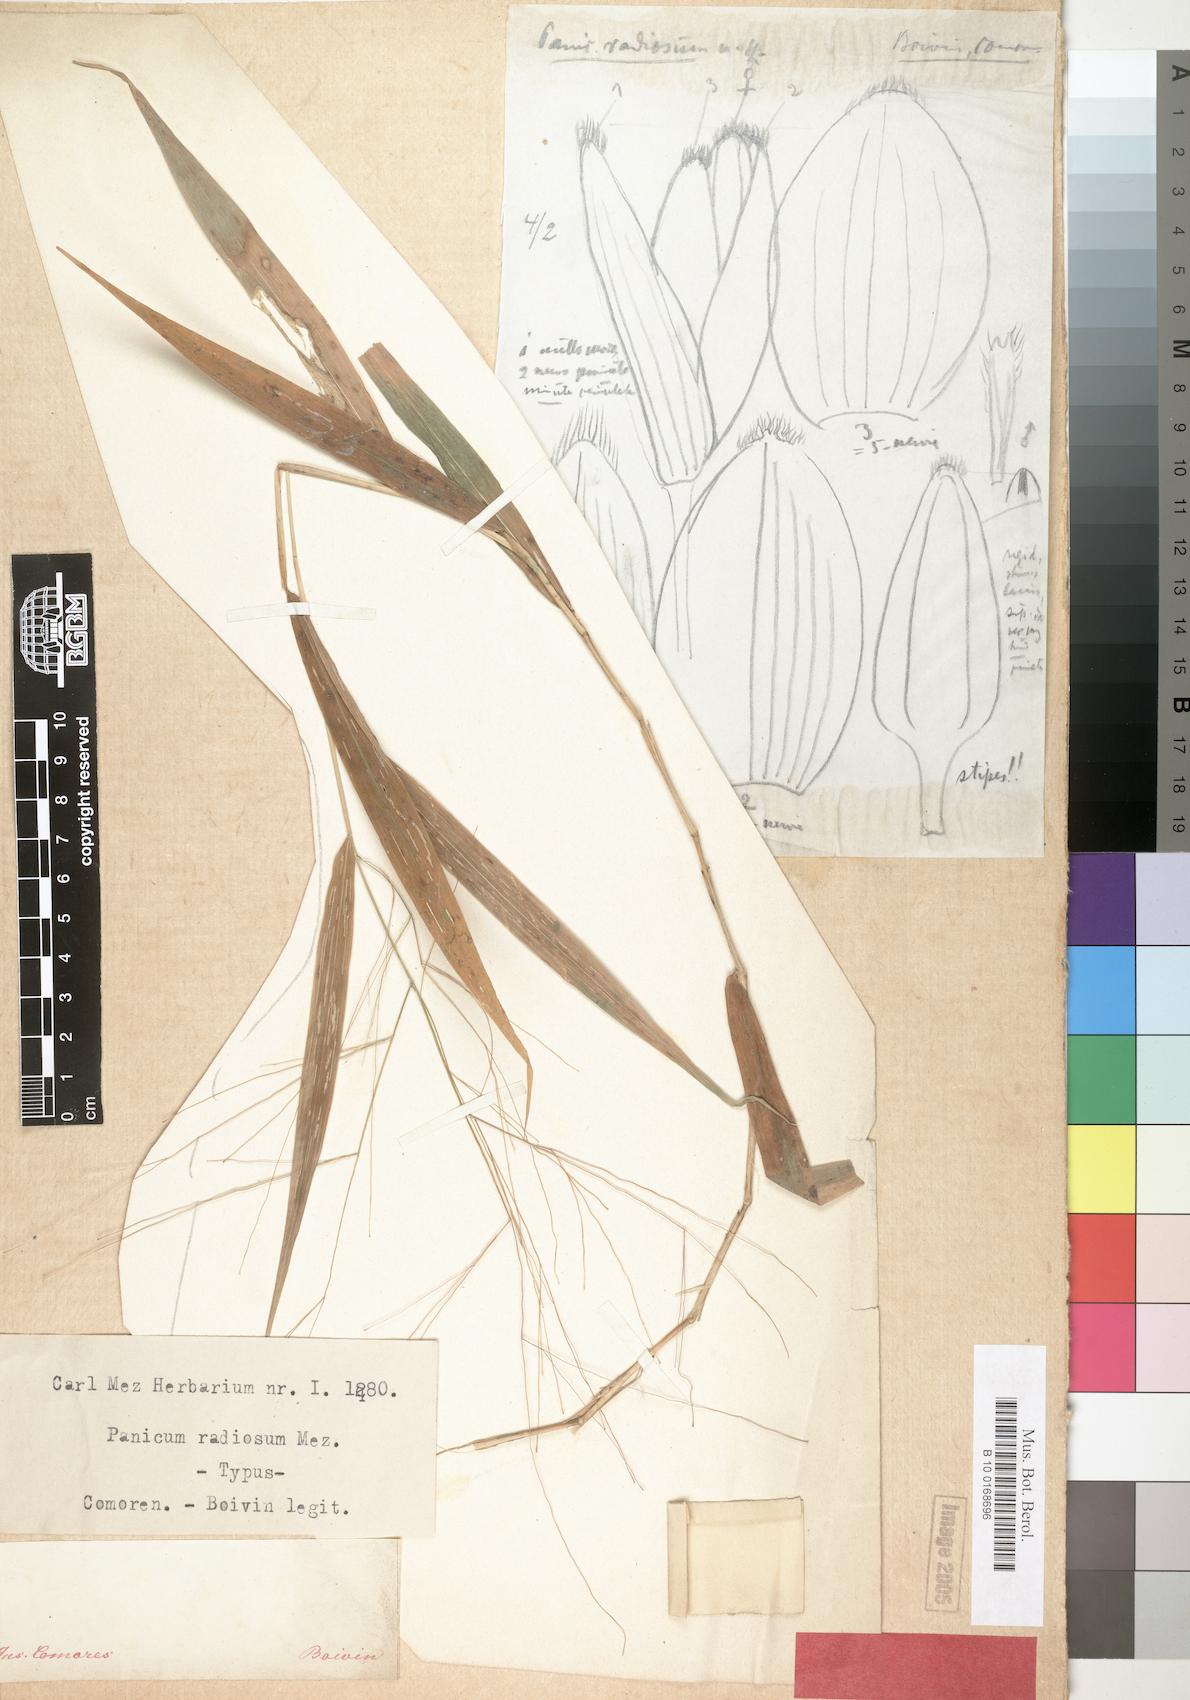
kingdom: Plantae
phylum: Tracheophyta
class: Liliopsida
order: Poales
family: Poaceae
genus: Panicum
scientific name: Panicum fluviicola
